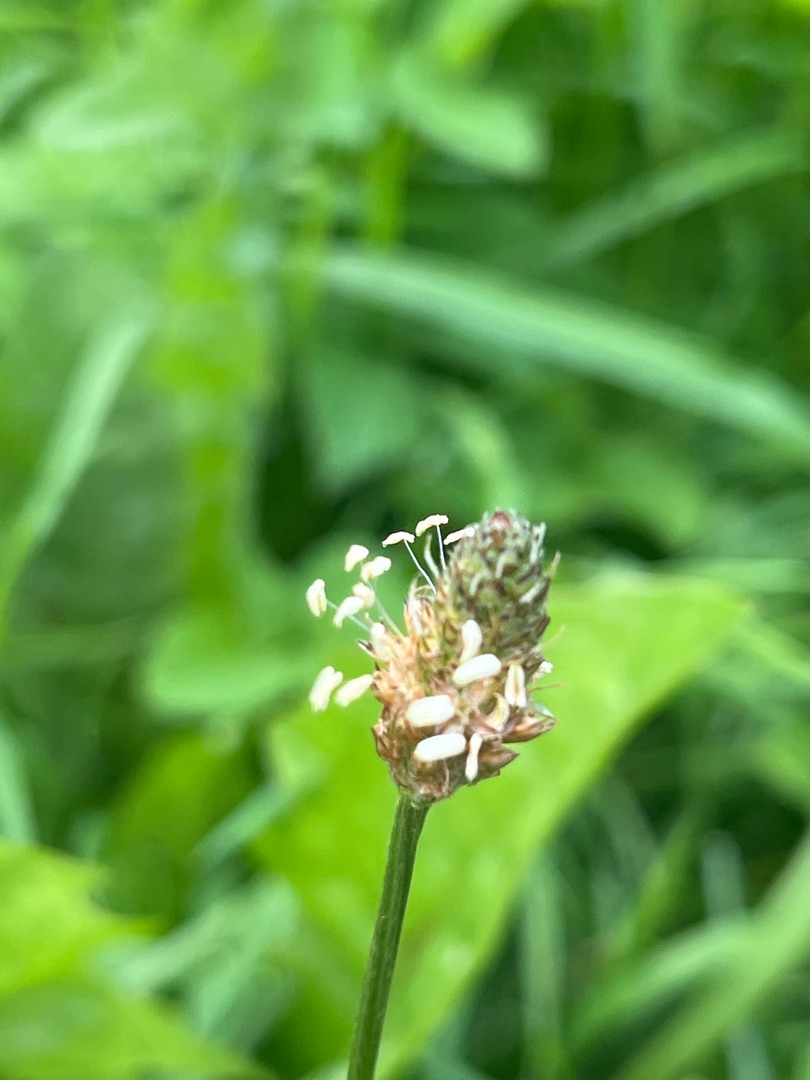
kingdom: Plantae
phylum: Tracheophyta
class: Magnoliopsida
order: Lamiales
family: Plantaginaceae
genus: Plantago
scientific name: Plantago lanceolata
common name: Lancet-vejbred
